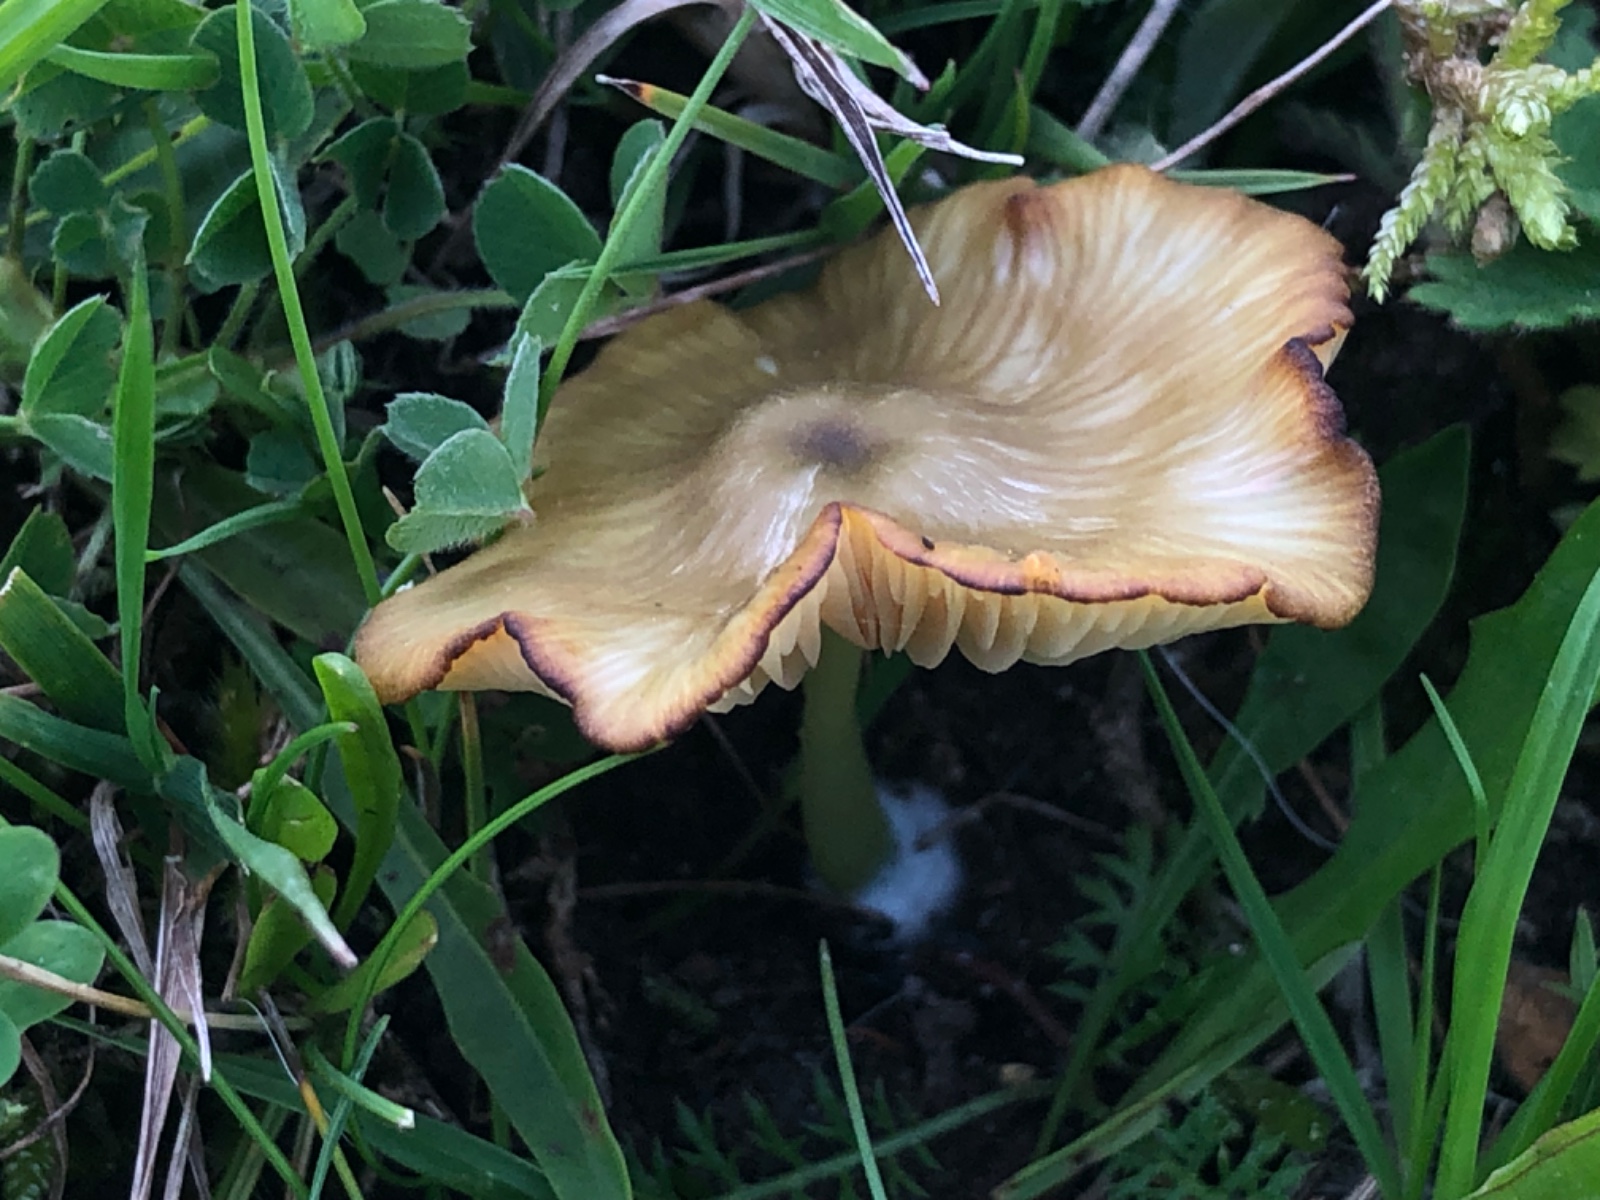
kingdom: Fungi
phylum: Basidiomycota
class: Agaricomycetes
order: Agaricales
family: Entolomataceae
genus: Entoloma
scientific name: Entoloma incanum
